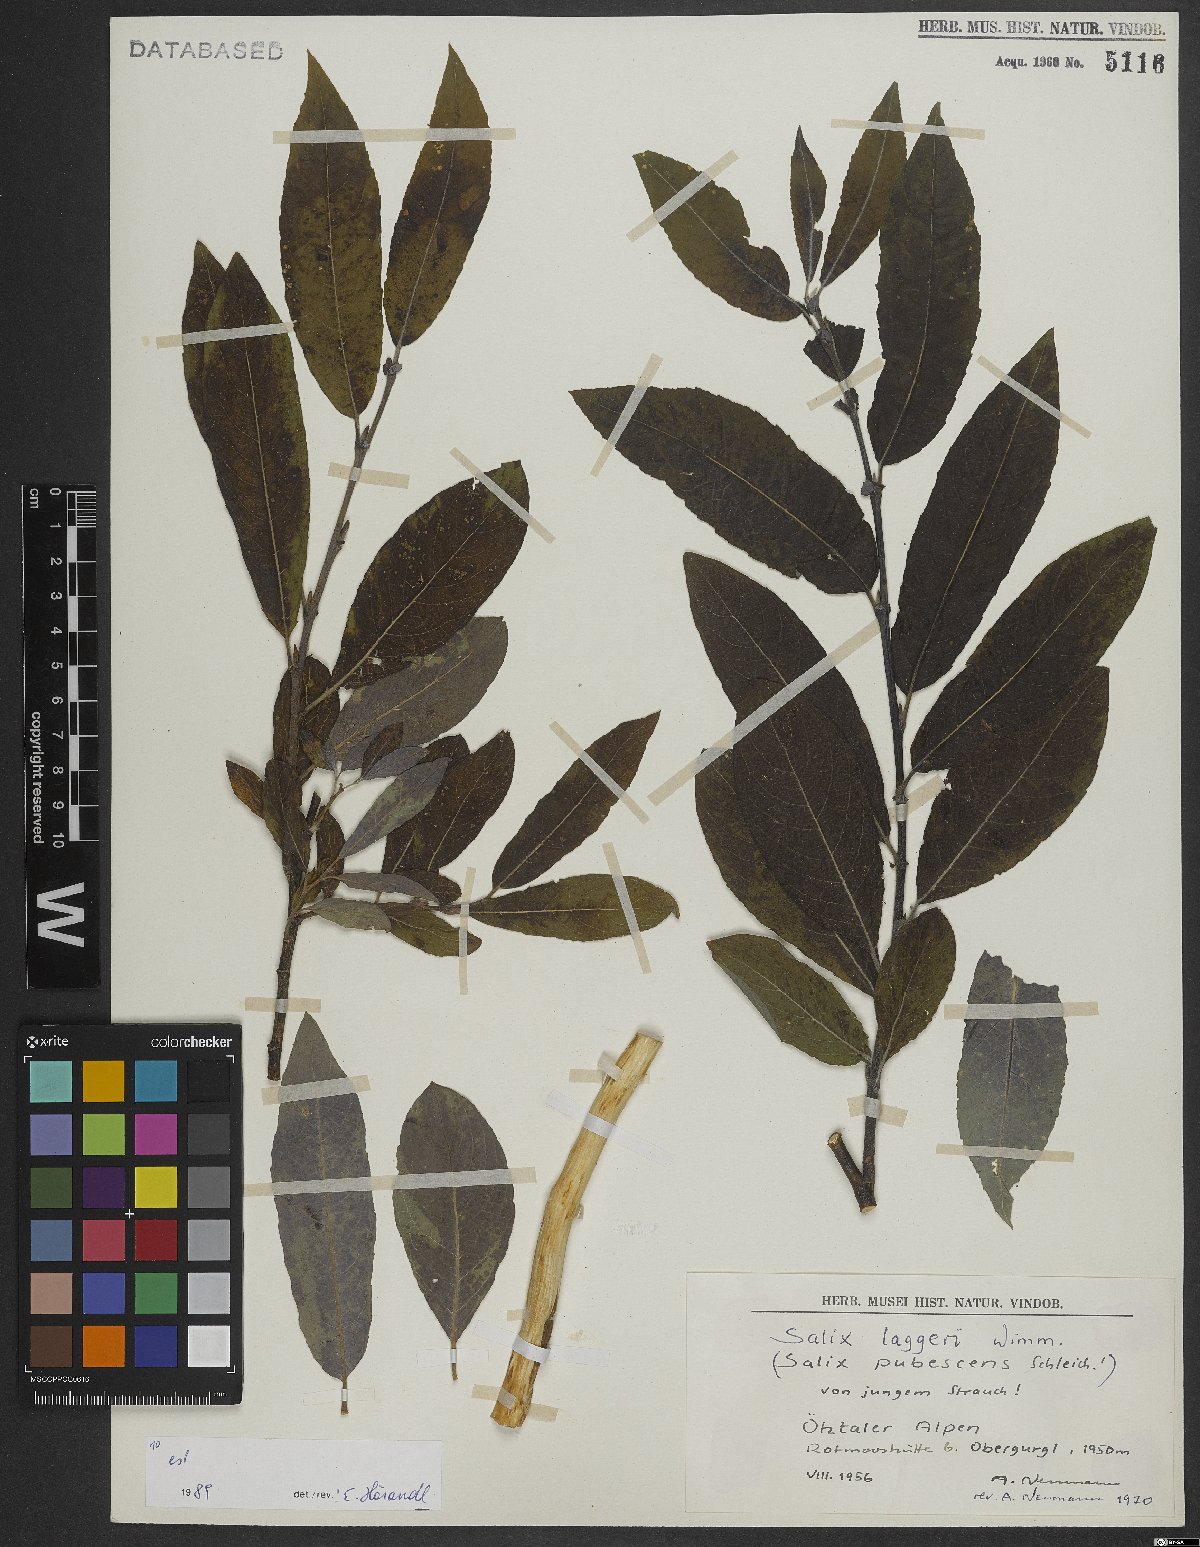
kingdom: Plantae
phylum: Tracheophyta
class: Magnoliopsida
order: Malpighiales
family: Salicaceae
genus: Salix
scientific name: Salix laggeri
